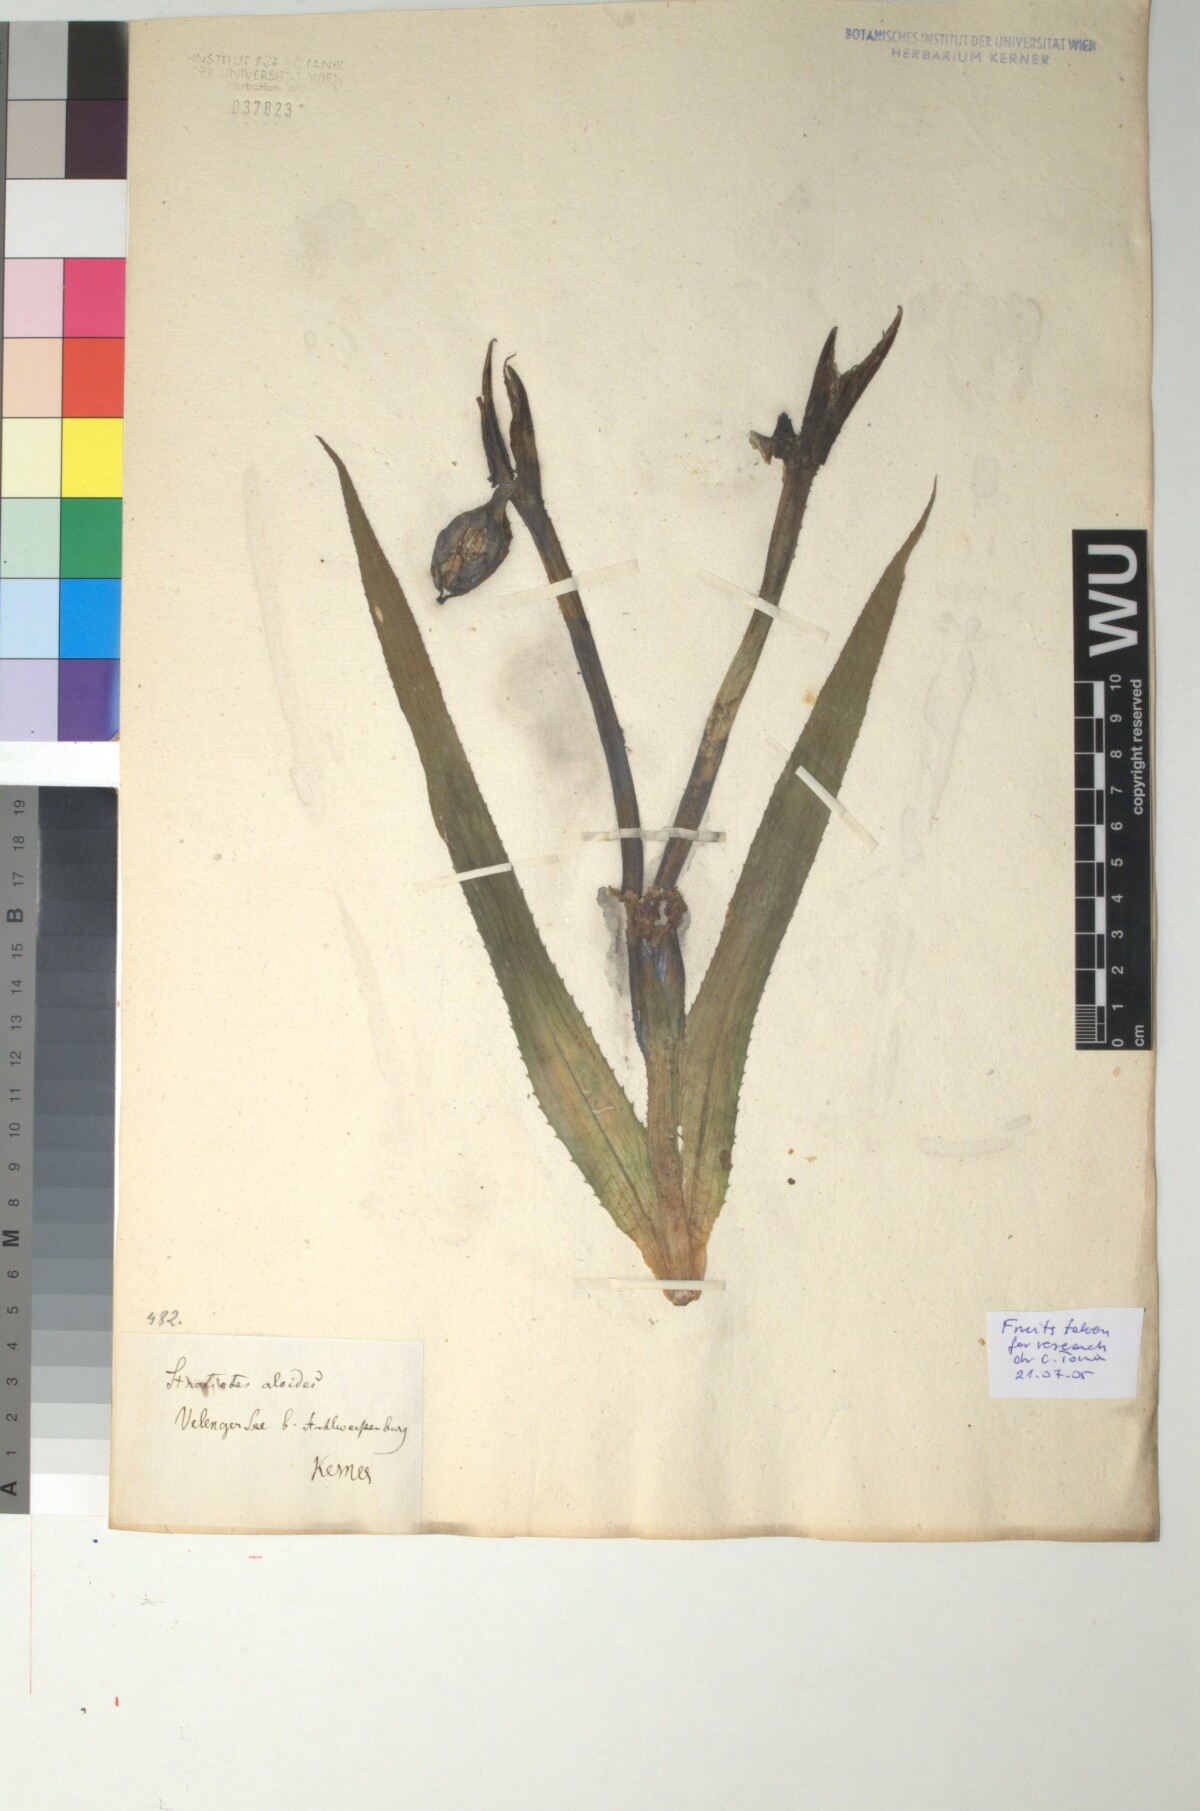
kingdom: Plantae
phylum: Tracheophyta
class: Liliopsida
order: Alismatales
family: Hydrocharitaceae
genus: Stratiotes
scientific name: Stratiotes aloides
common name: Water-soldier
